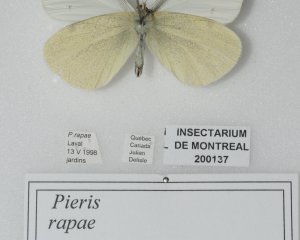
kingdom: Animalia
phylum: Arthropoda
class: Insecta
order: Lepidoptera
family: Pieridae
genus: Pieris
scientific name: Pieris rapae
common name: Cabbage White
